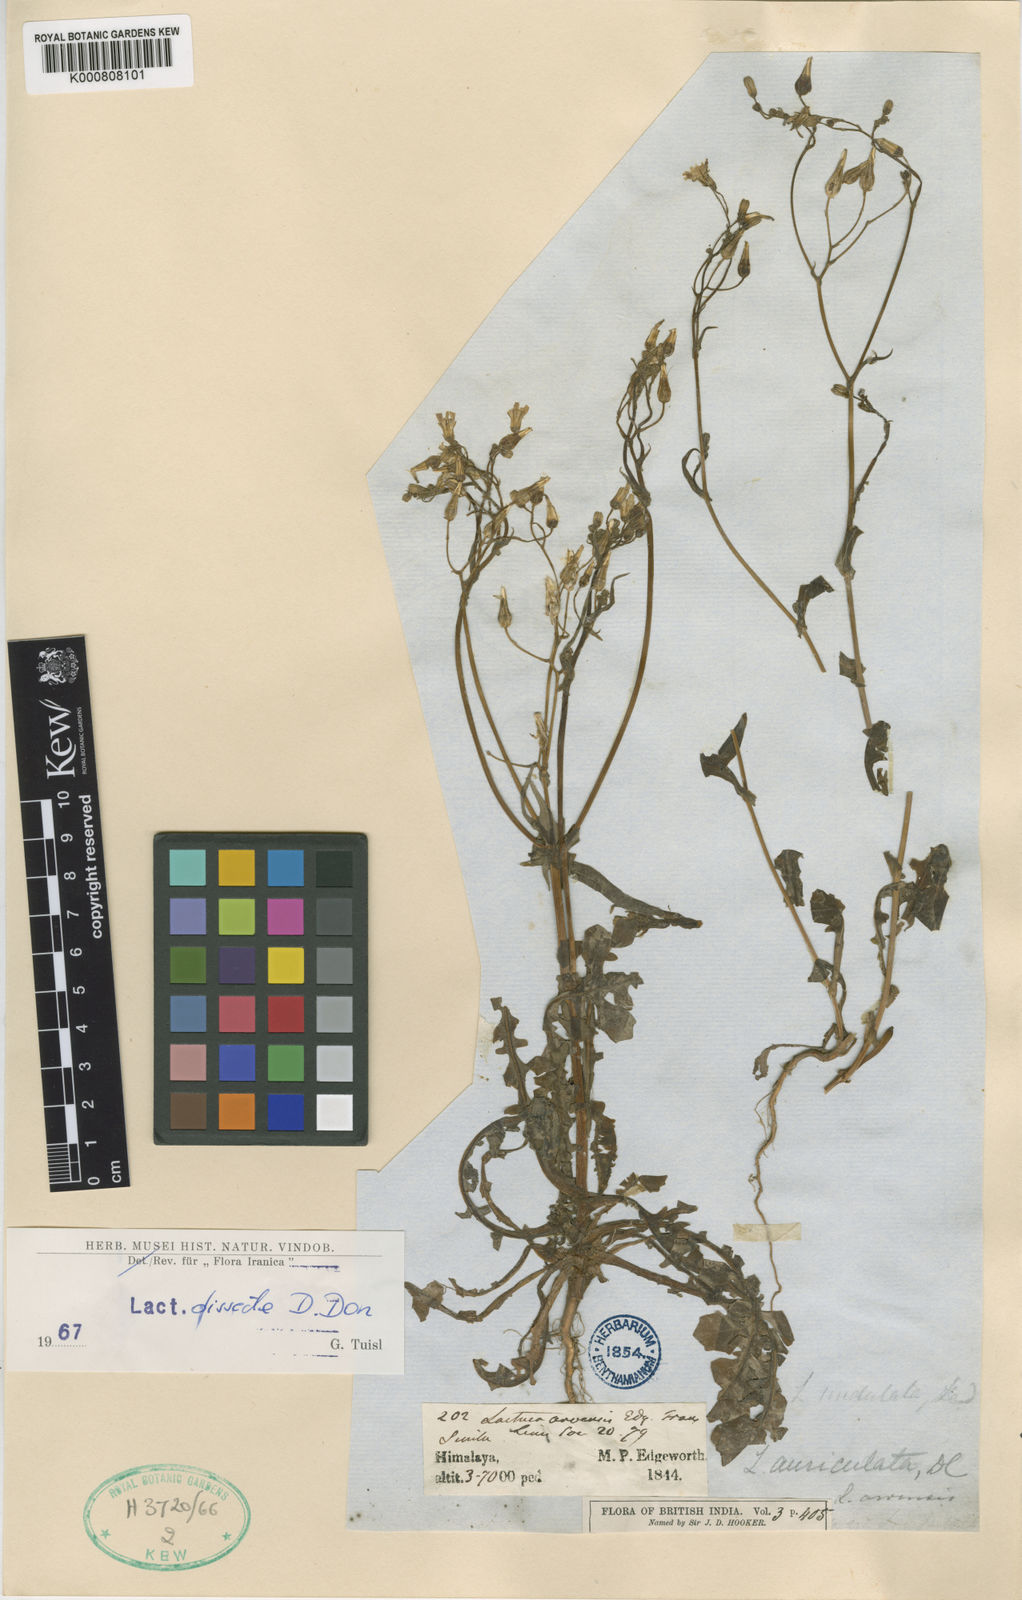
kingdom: Plantae
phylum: Tracheophyta
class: Magnoliopsida
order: Asterales
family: Asteraceae
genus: Lactuca
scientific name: Lactuca dissecta
